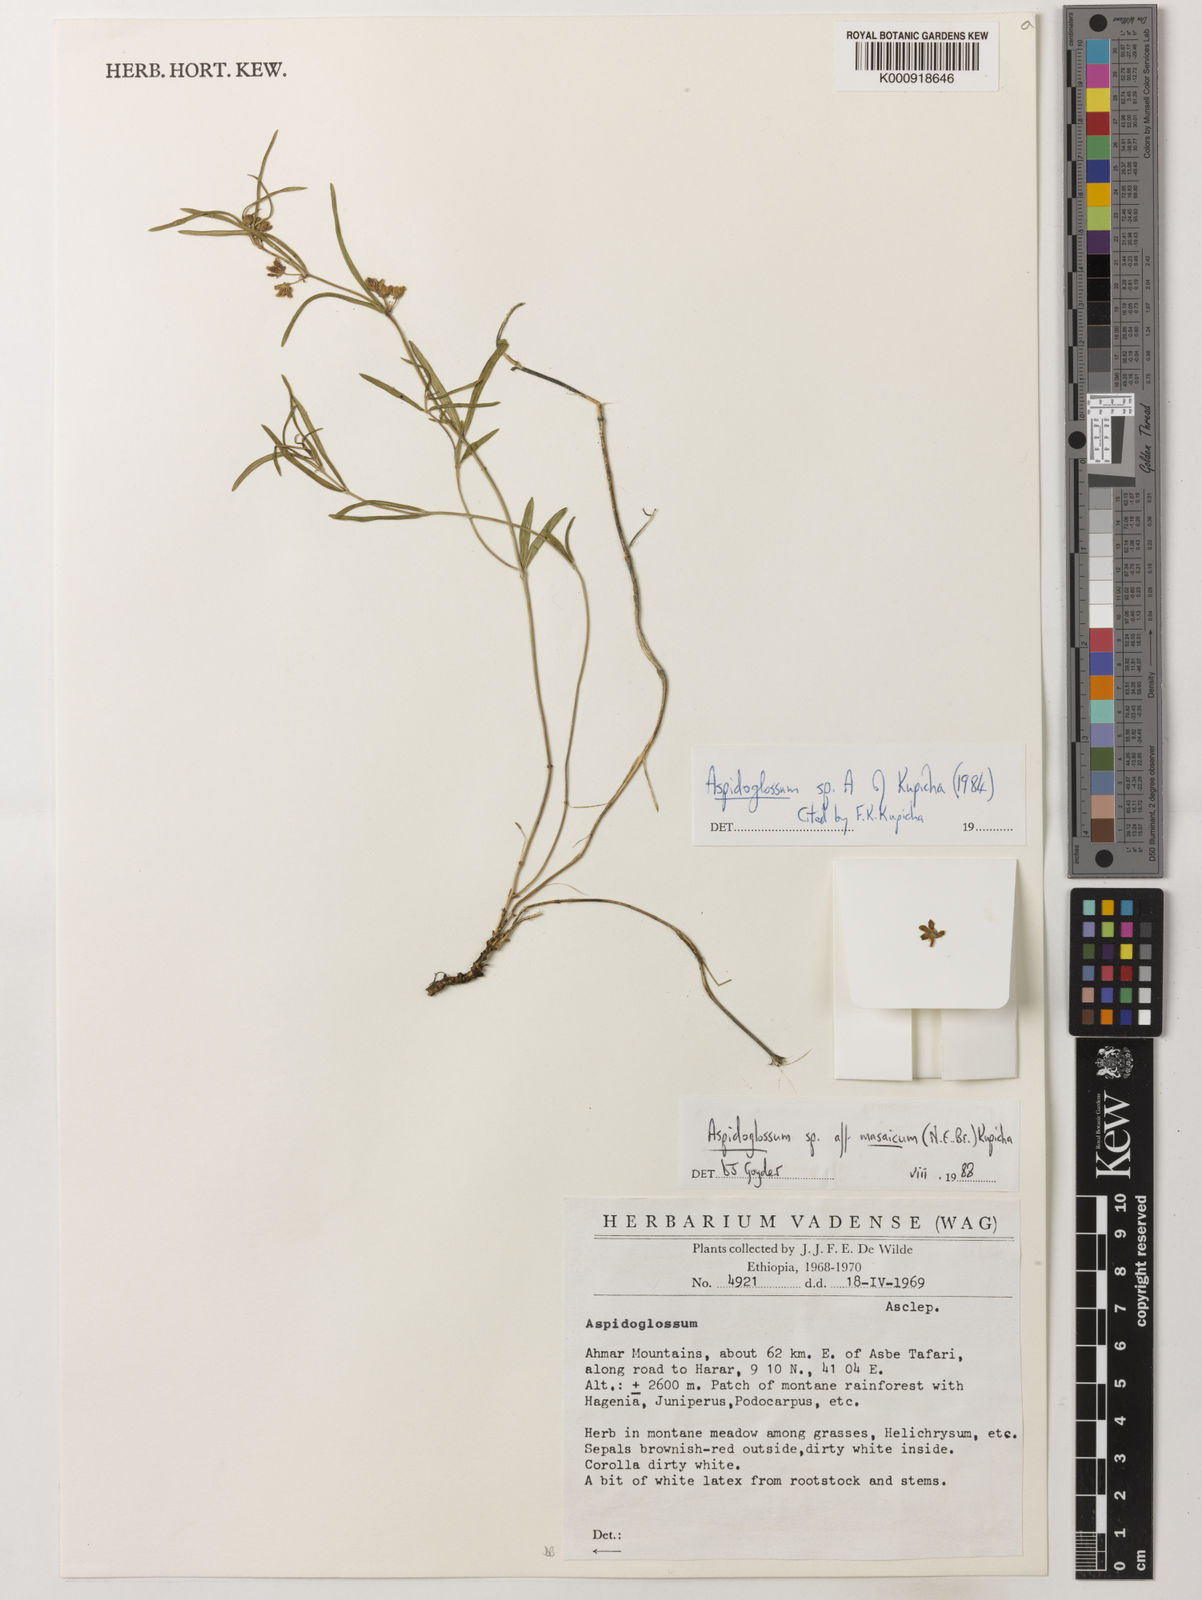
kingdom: Plantae
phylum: Tracheophyta
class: Magnoliopsida
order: Gentianales
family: Apocynaceae
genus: Aspidoglossum
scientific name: Aspidoglossum
